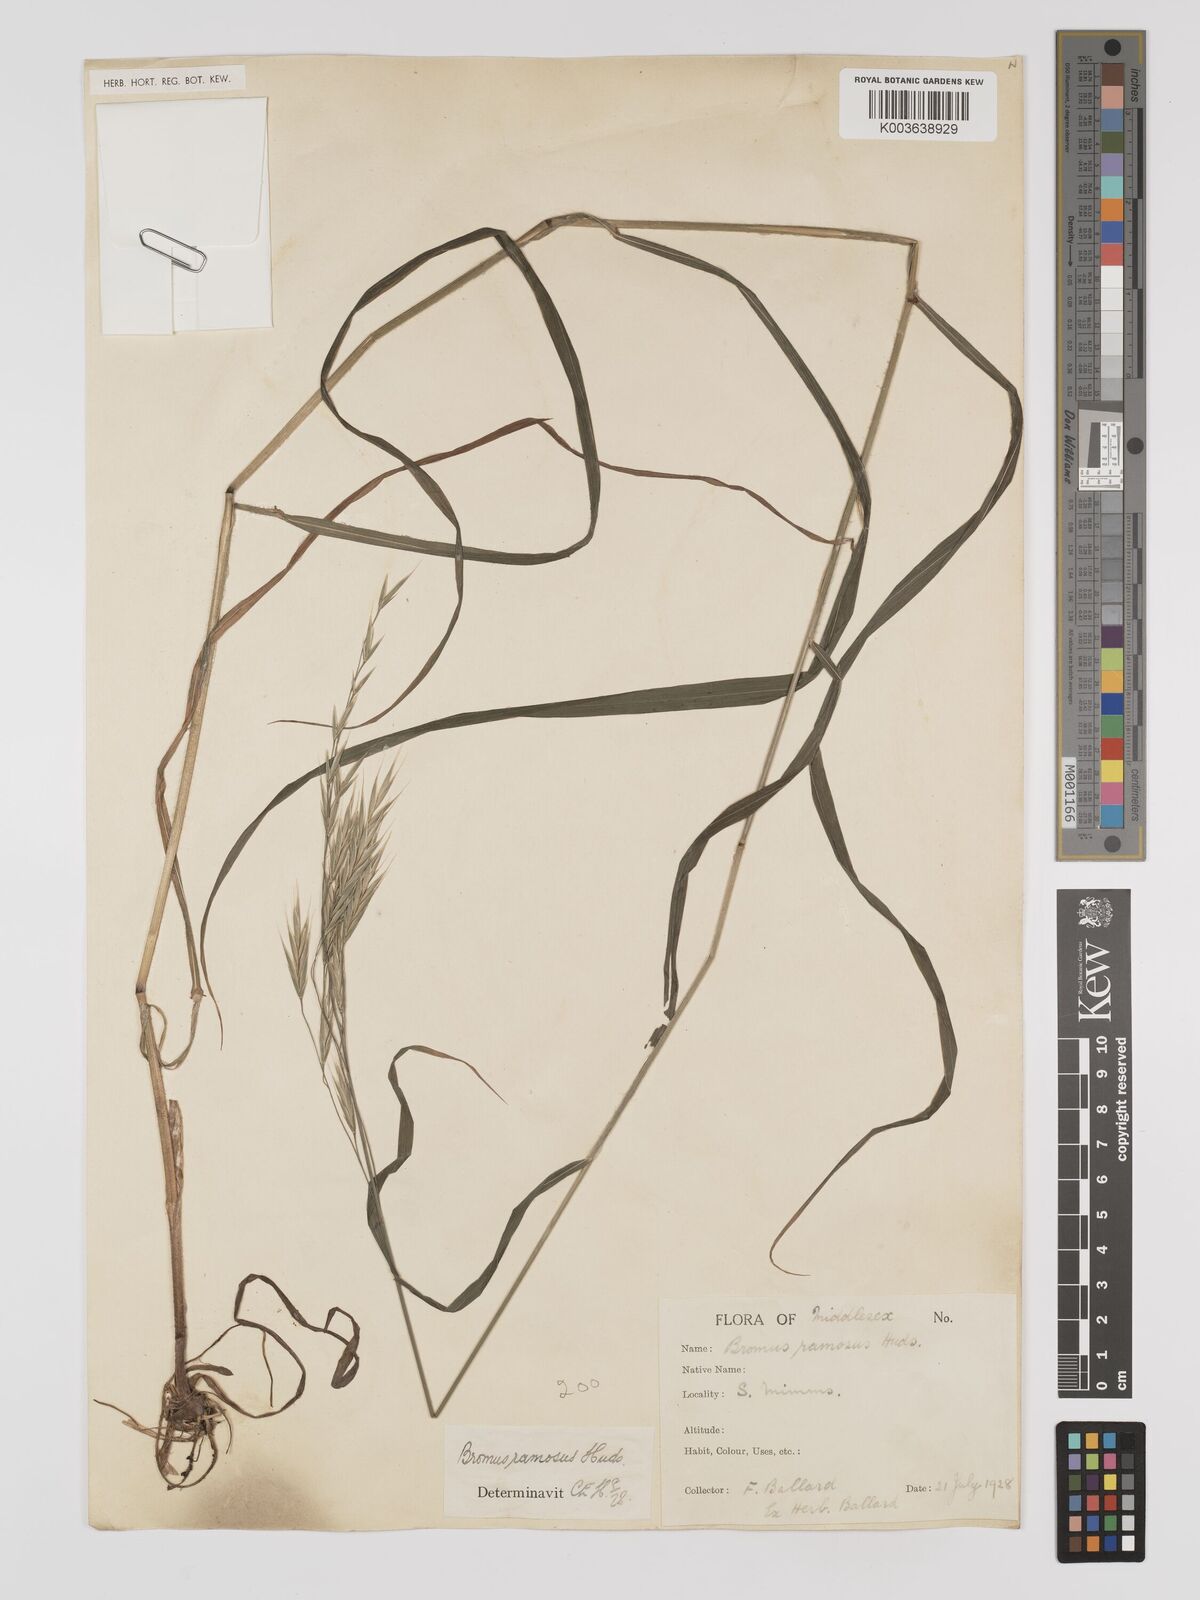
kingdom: Plantae
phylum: Tracheophyta
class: Liliopsida
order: Poales
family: Poaceae
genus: Bromus
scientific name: Bromus ramosus
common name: Hairy brome
